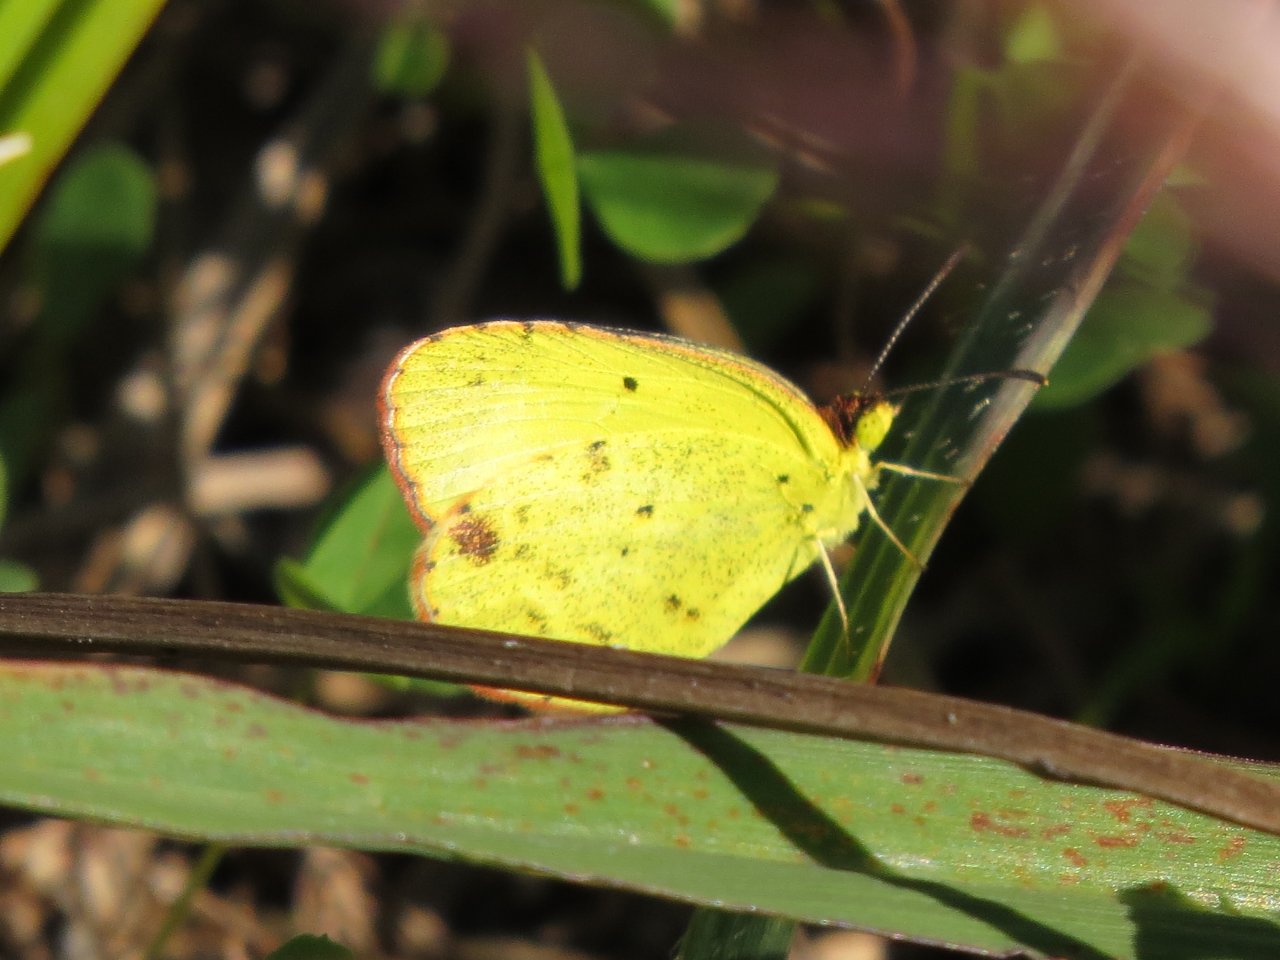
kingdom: Animalia
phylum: Arthropoda
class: Insecta
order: Lepidoptera
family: Pieridae
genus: Pyrisitia
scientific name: Pyrisitia lisa
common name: Little Yellow
